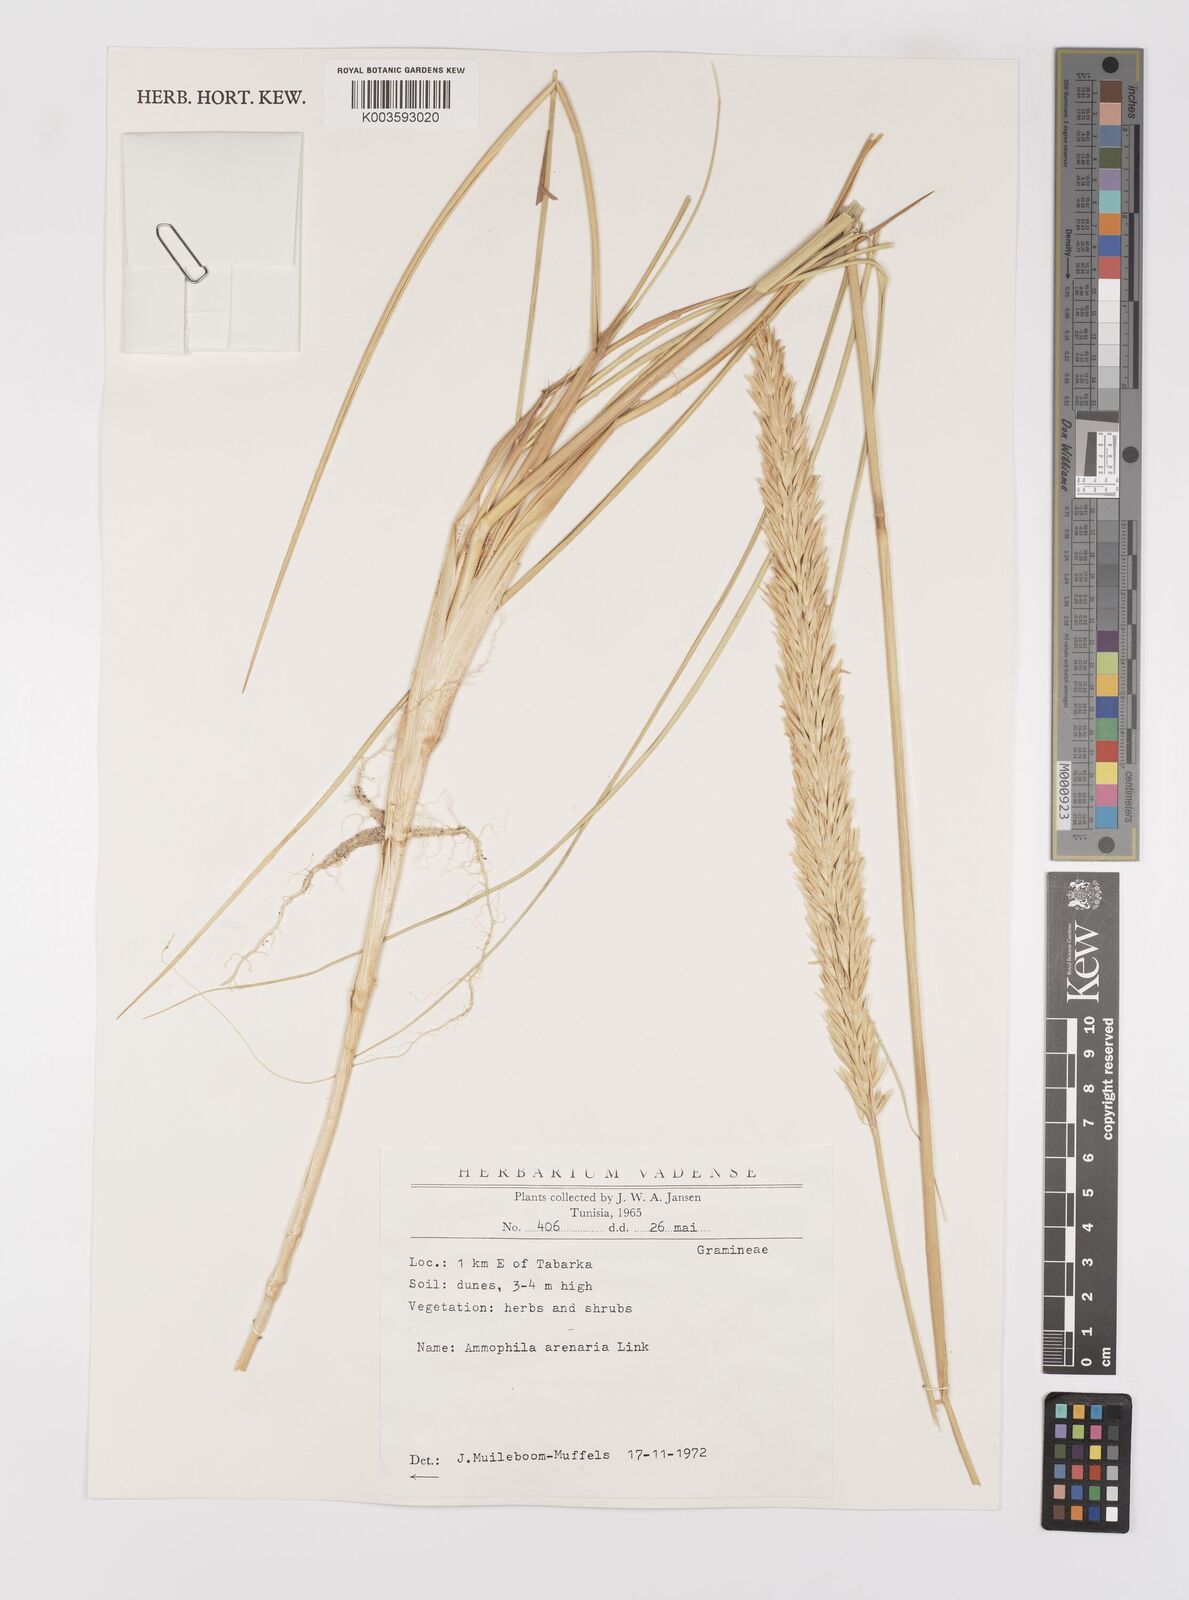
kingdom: Plantae
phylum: Tracheophyta
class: Liliopsida
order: Poales
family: Poaceae
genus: Calamagrostis
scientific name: Calamagrostis arenaria
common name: European beachgrass
